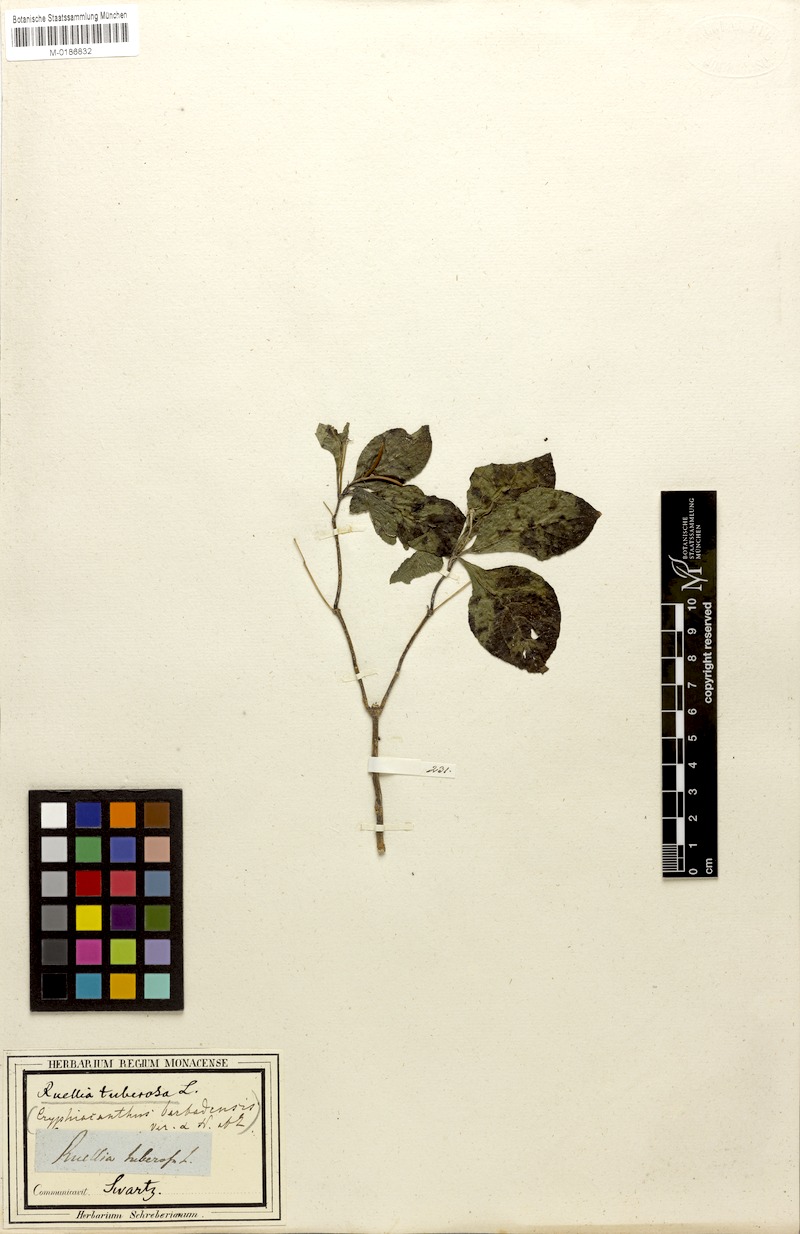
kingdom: Plantae
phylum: Tracheophyta
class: Magnoliopsida
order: Lamiales
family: Acanthaceae
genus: Ruellia
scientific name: Ruellia tuberosa
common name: Devil's bit
